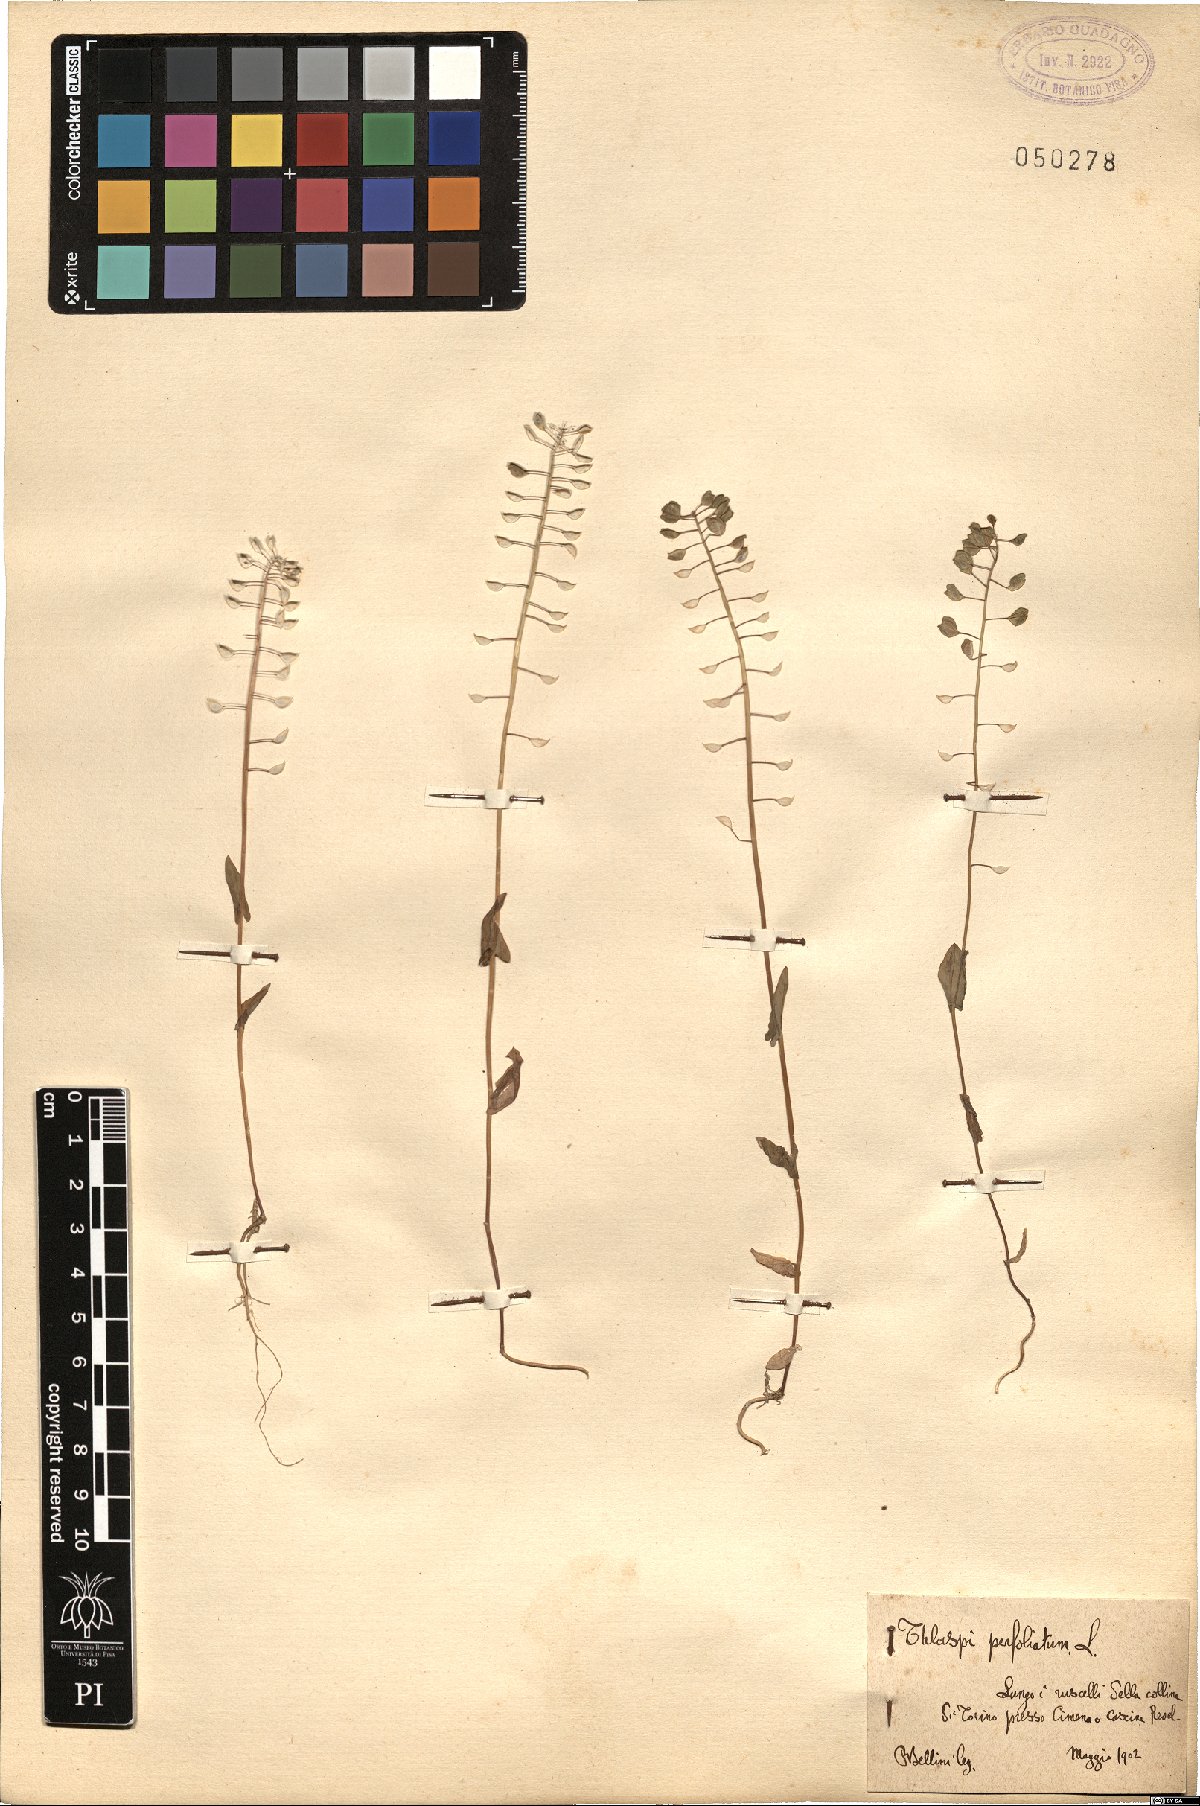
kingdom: Plantae
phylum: Tracheophyta
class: Magnoliopsida
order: Brassicales
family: Brassicaceae
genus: Noccaea
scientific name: Noccaea perfoliata
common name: Perfoliate pennycress
